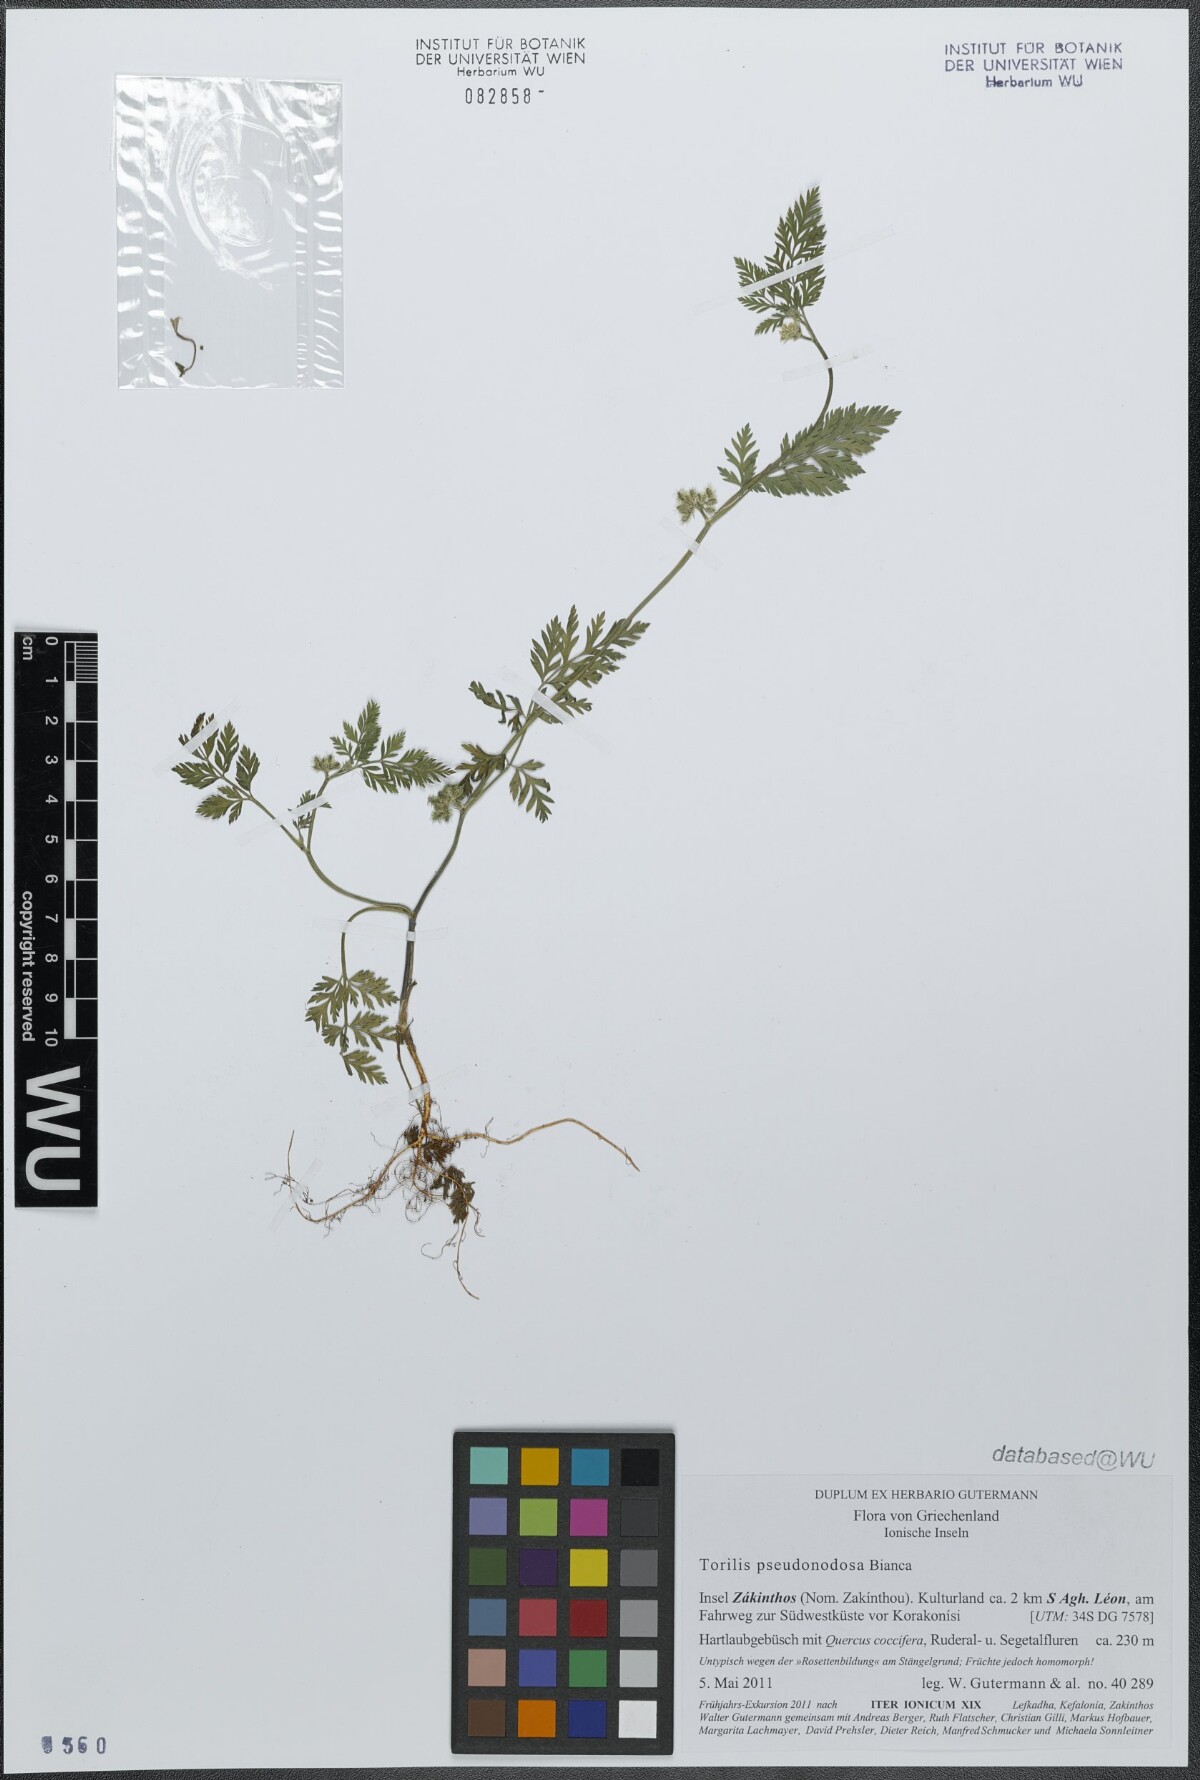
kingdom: Plantae
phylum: Tracheophyta
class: Magnoliopsida
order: Apiales
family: Apiaceae
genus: Torilis
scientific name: Torilis pseudonodosa
